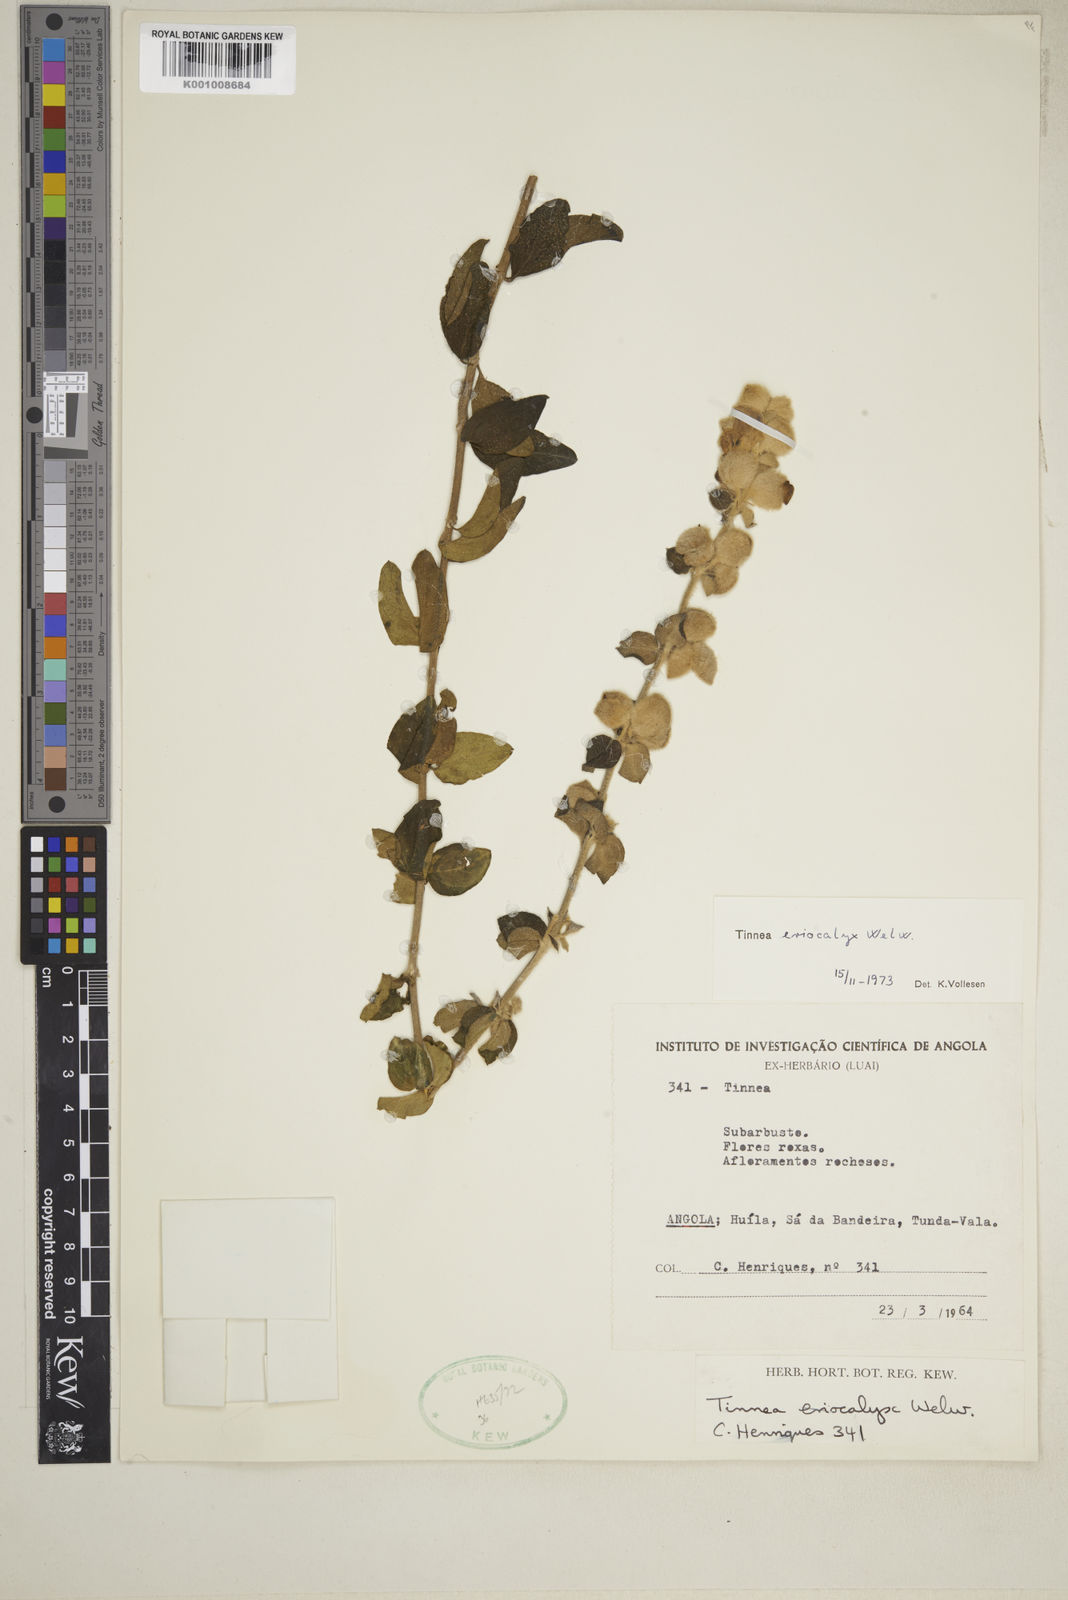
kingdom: Plantae
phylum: Tracheophyta
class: Magnoliopsida
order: Lamiales
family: Lamiaceae
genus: Tinnea
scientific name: Tinnea eriocalyx
